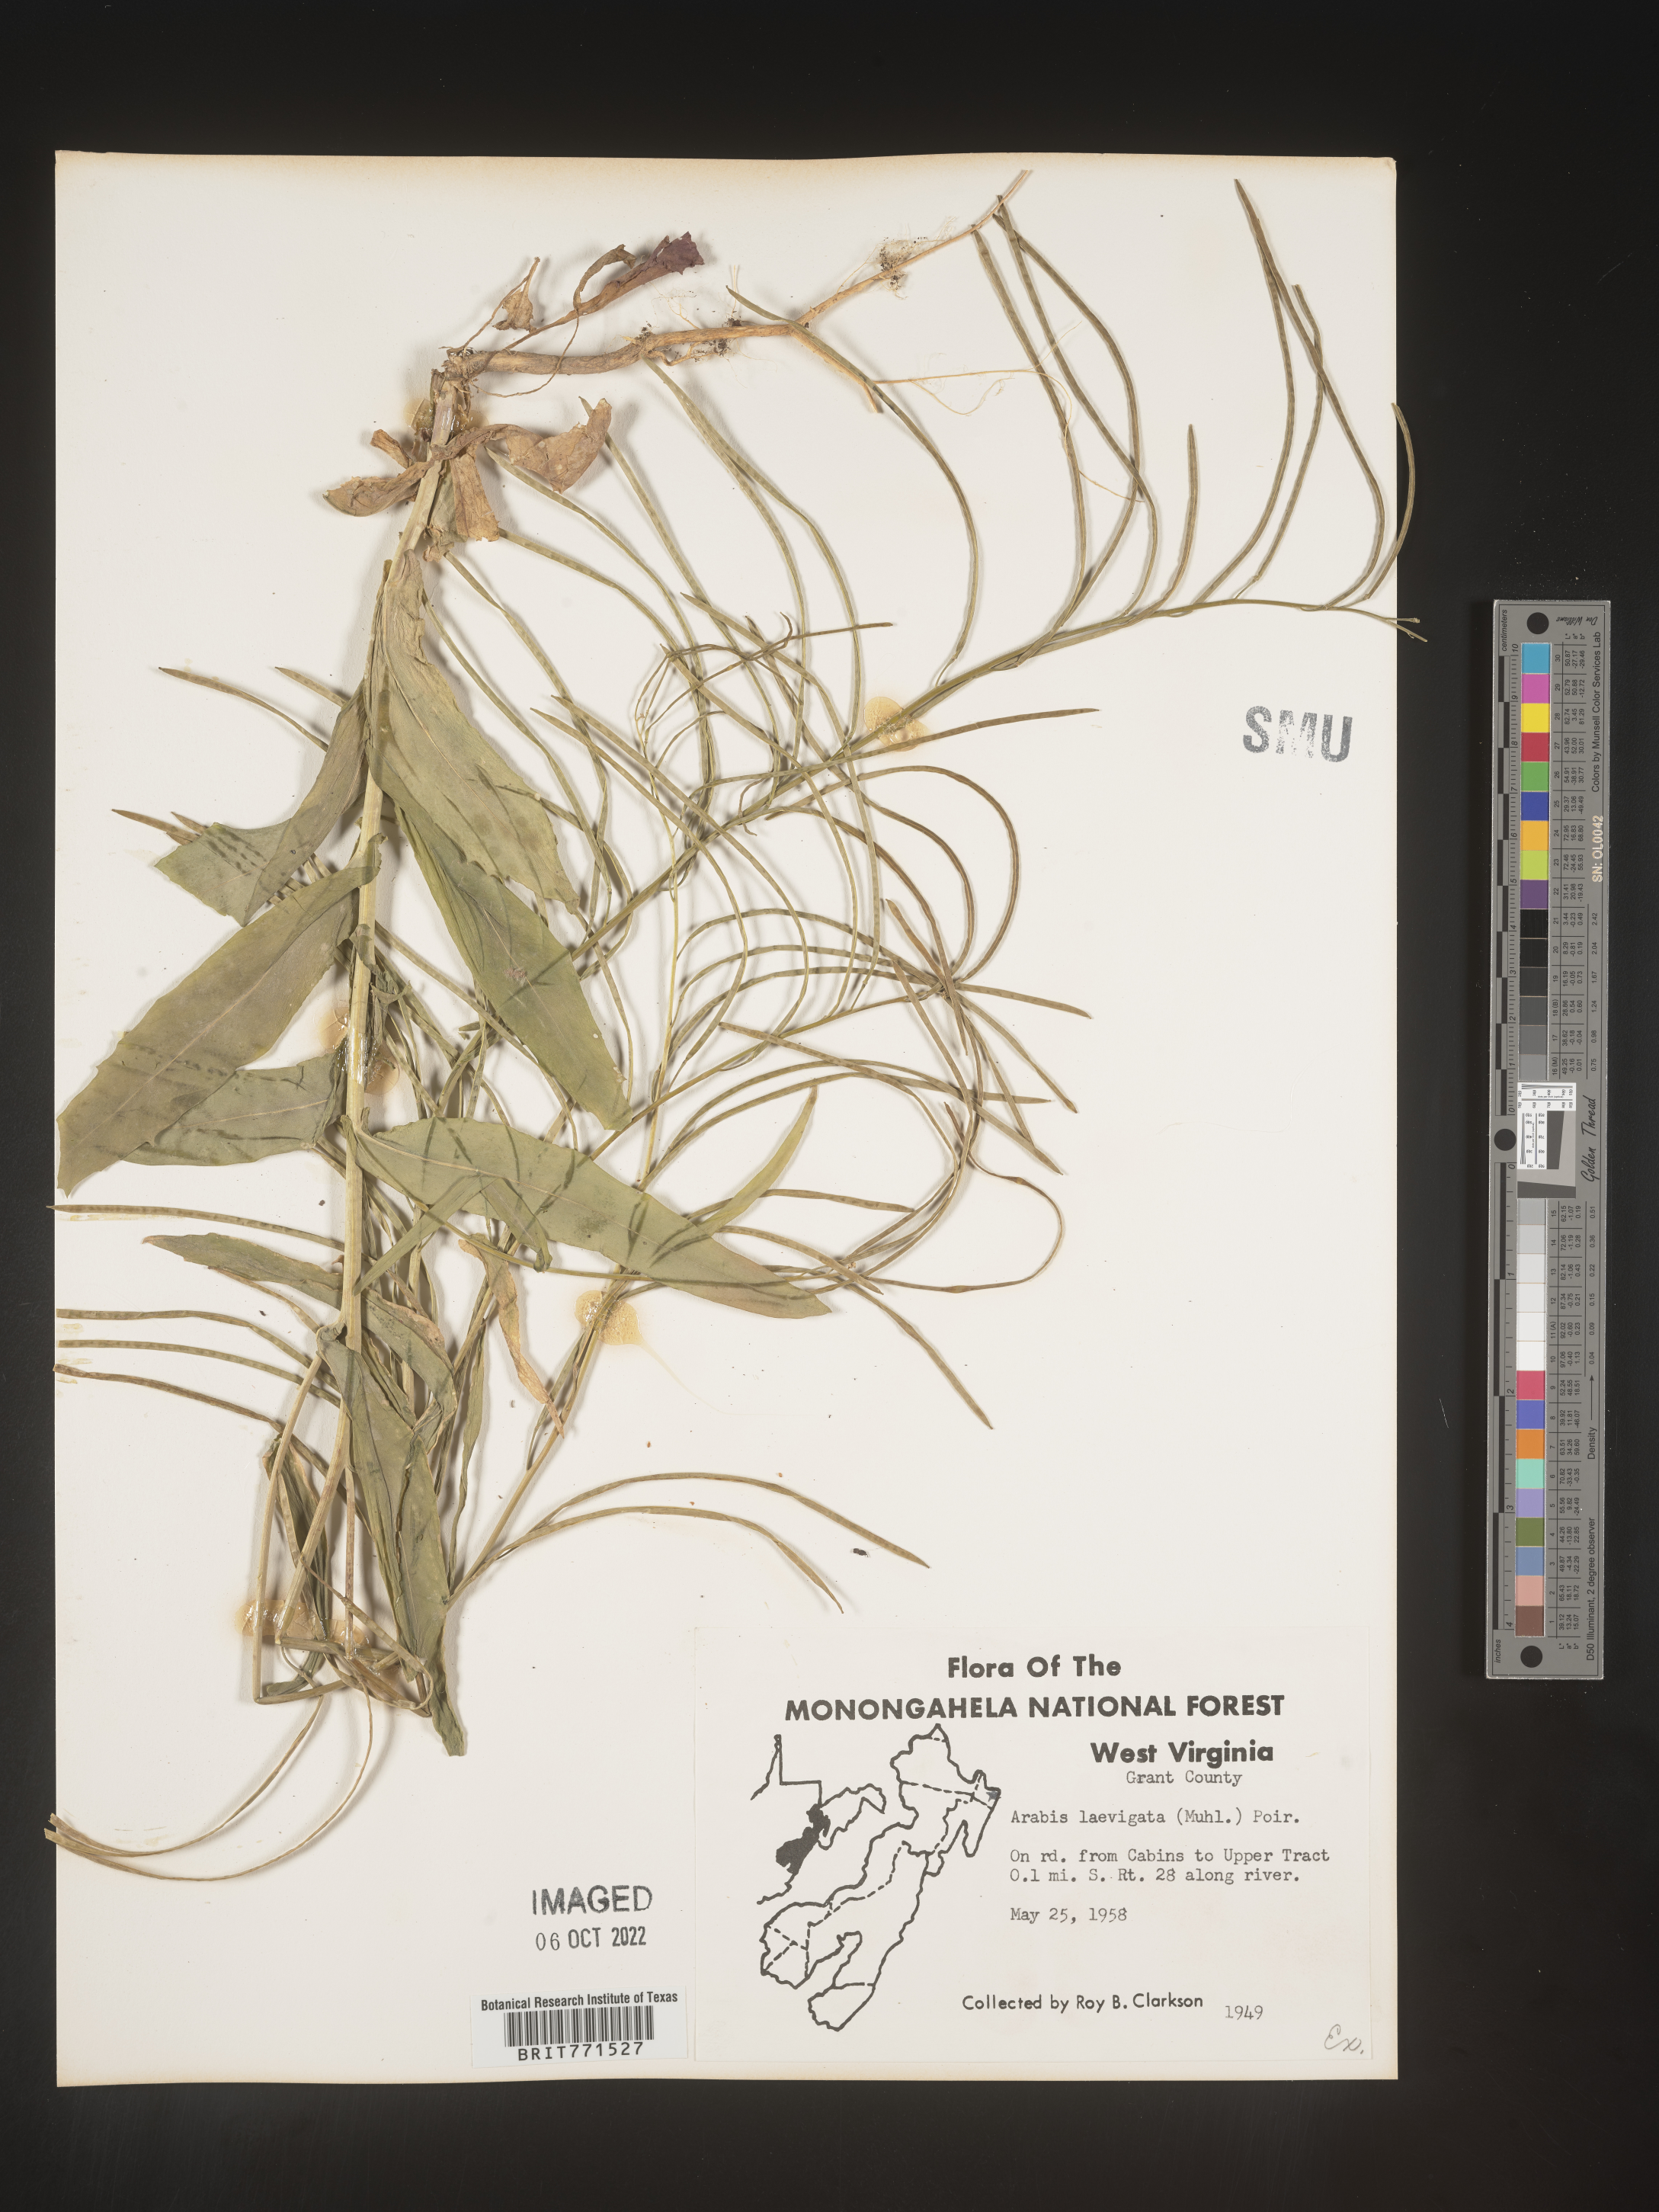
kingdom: Plantae
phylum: Tracheophyta
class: Magnoliopsida
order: Brassicales
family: Brassicaceae
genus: Arabis
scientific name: Arabis laevigata
